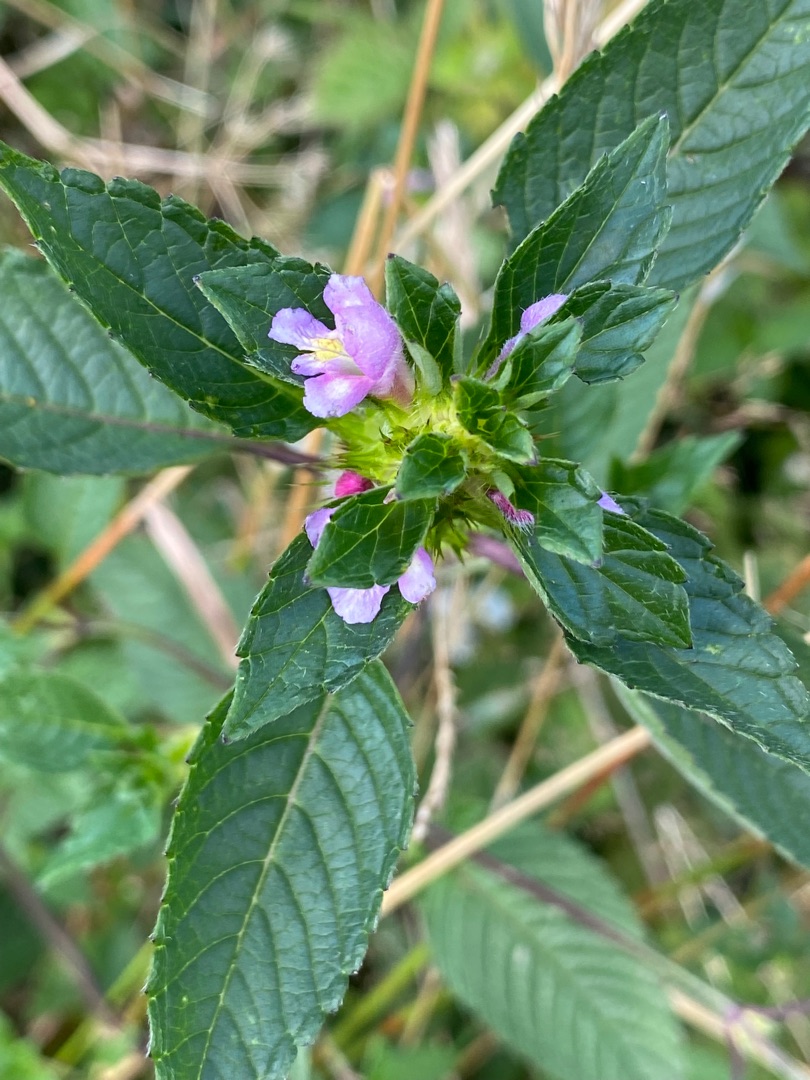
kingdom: Plantae
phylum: Tracheophyta
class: Magnoliopsida
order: Lamiales
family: Lamiaceae
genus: Galeopsis
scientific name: Galeopsis tetrahit
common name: Almindelig hanekro
